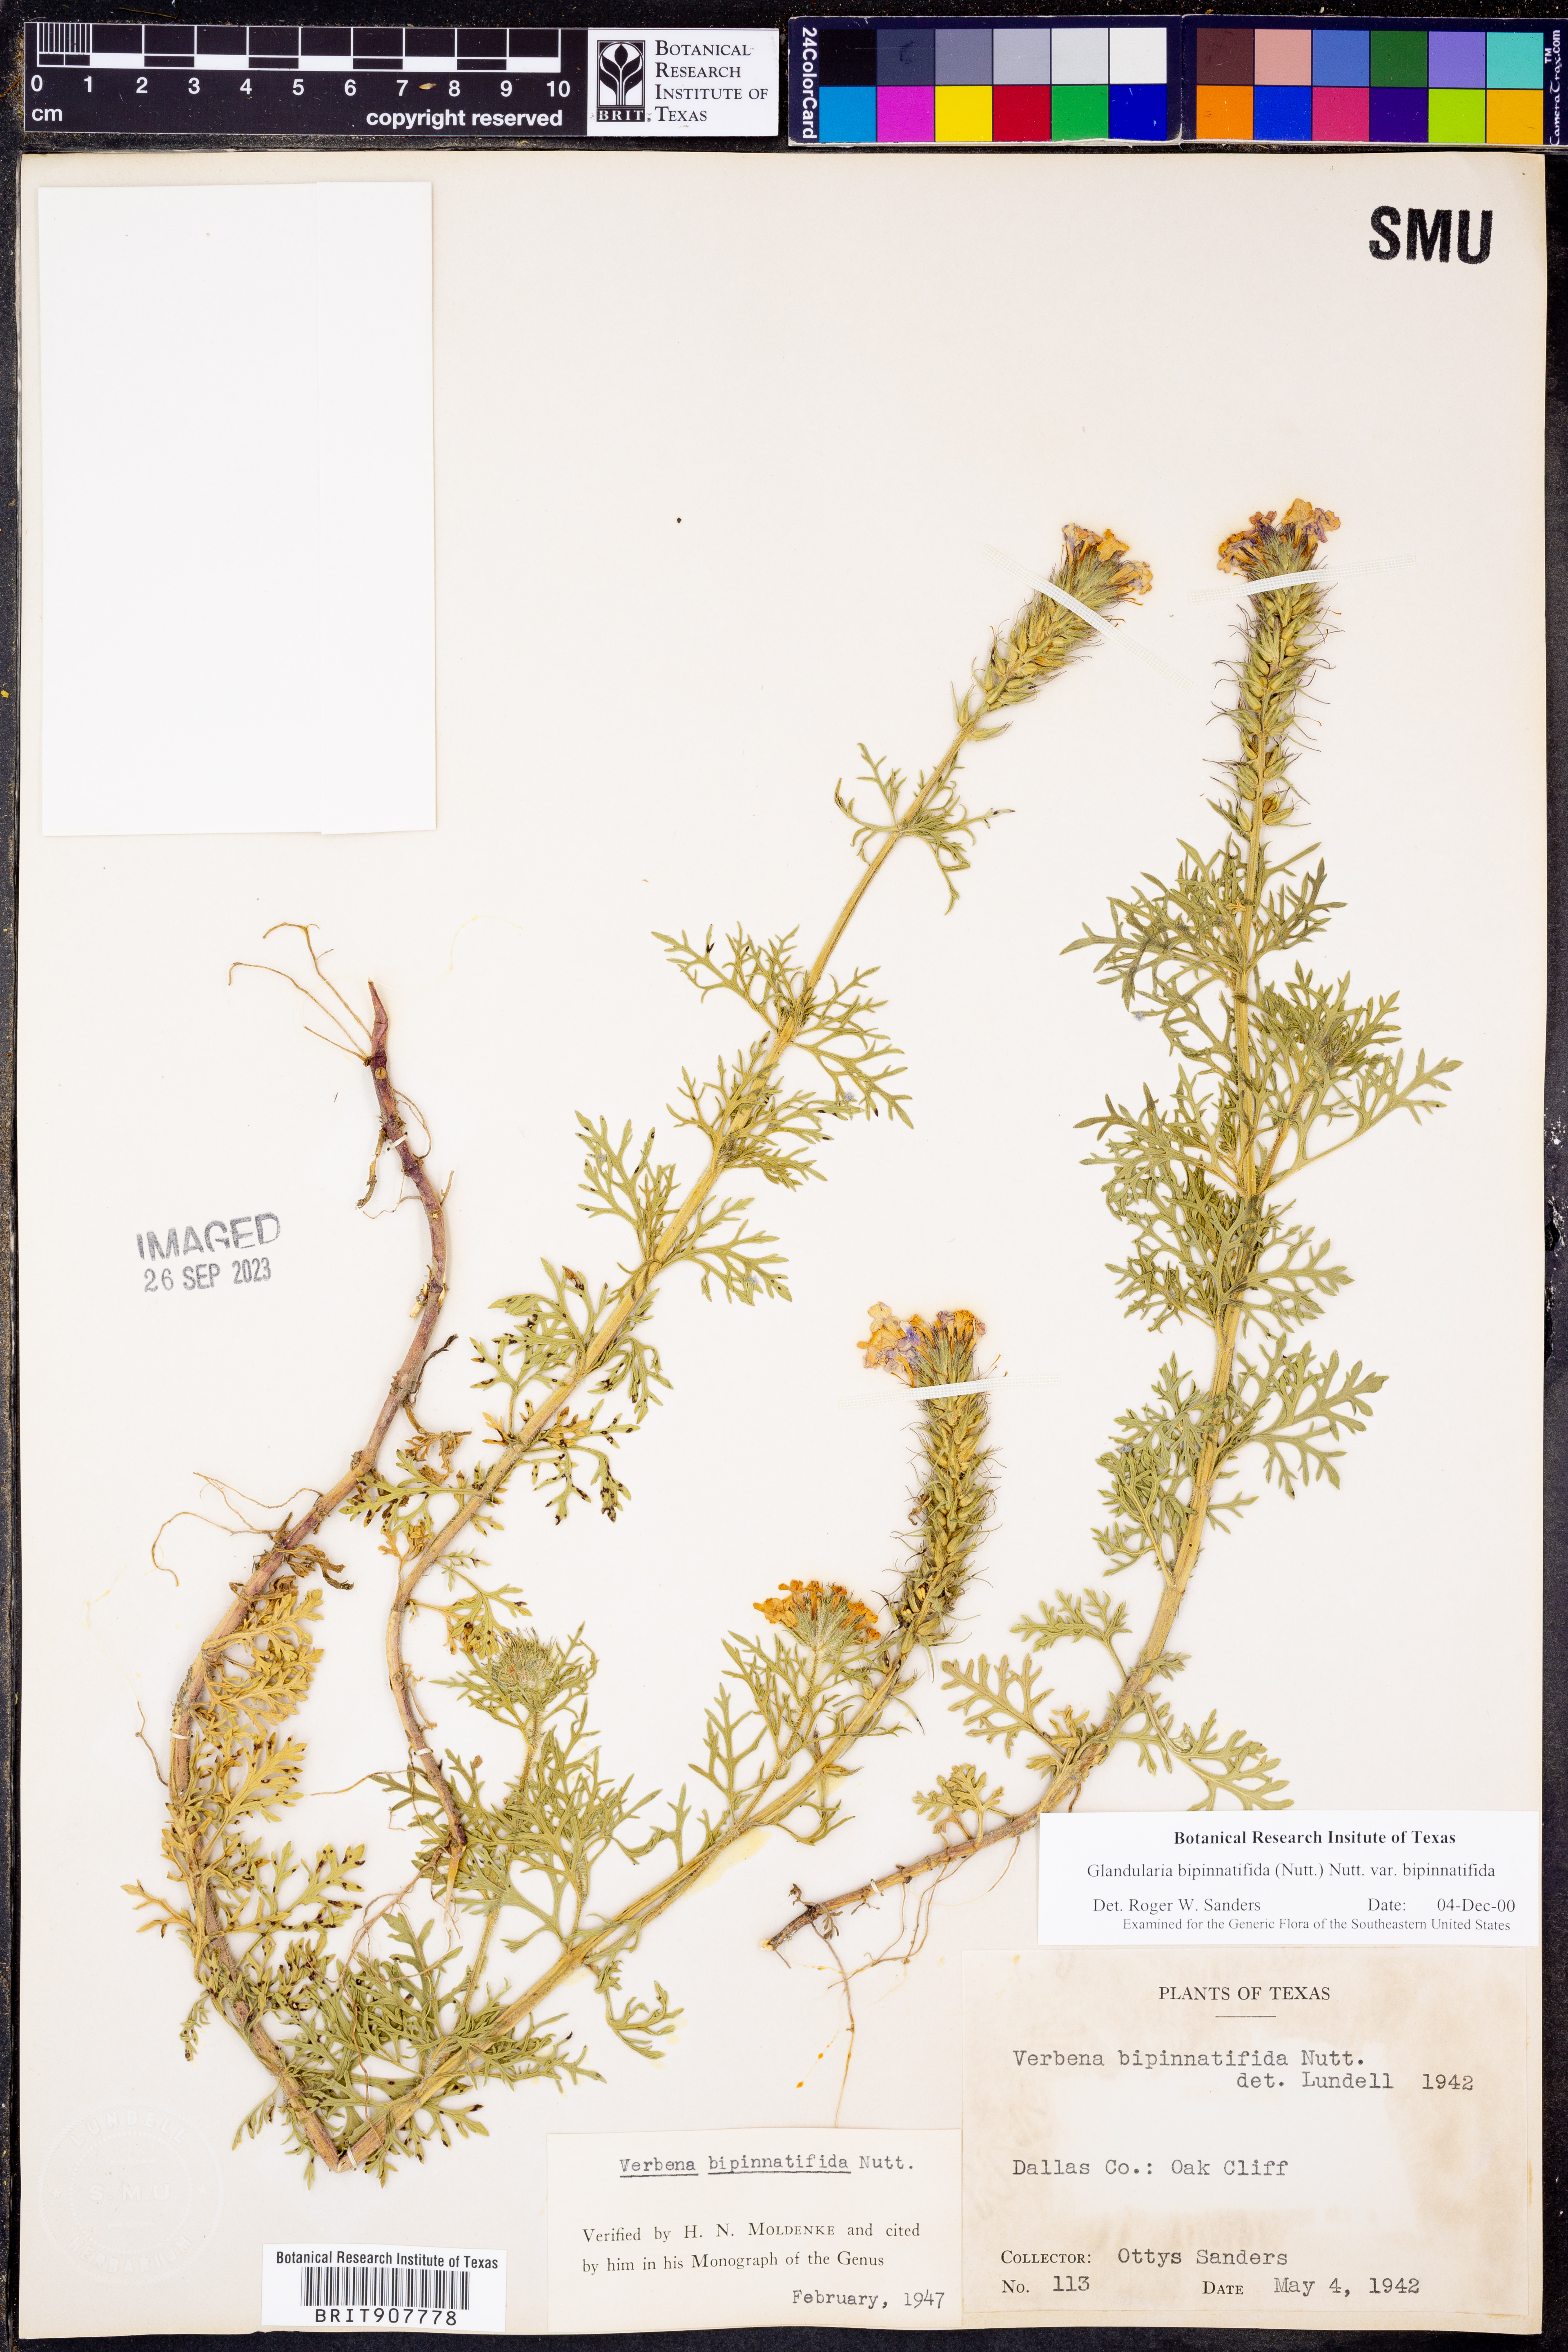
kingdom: Plantae
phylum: Tracheophyta
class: Magnoliopsida
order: Lamiales
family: Verbenaceae
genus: Verbena
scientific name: Verbena bipinnatifida
